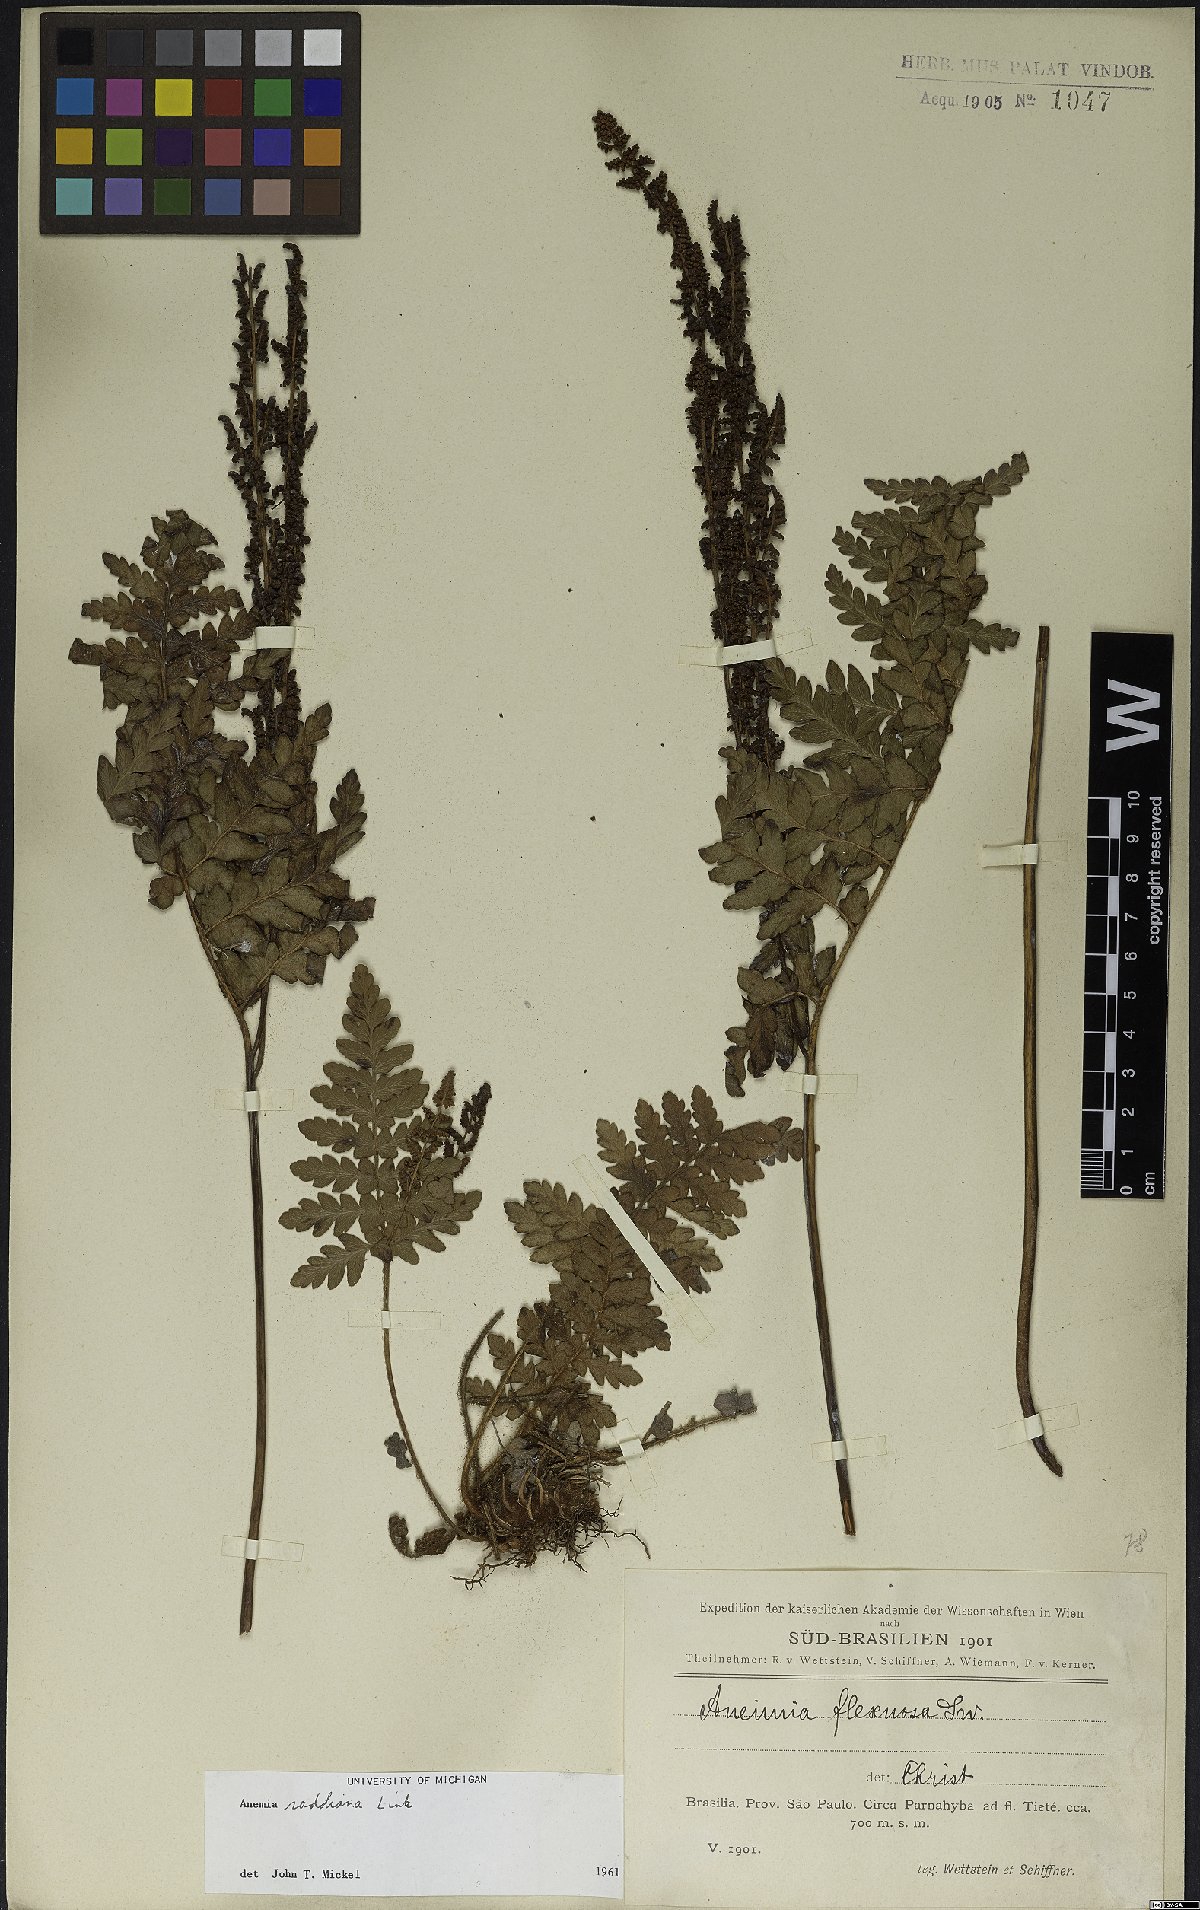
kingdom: Plantae
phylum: Tracheophyta
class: Polypodiopsida
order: Schizaeales
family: Anemiaceae
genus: Anemia
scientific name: Anemia raddiana
